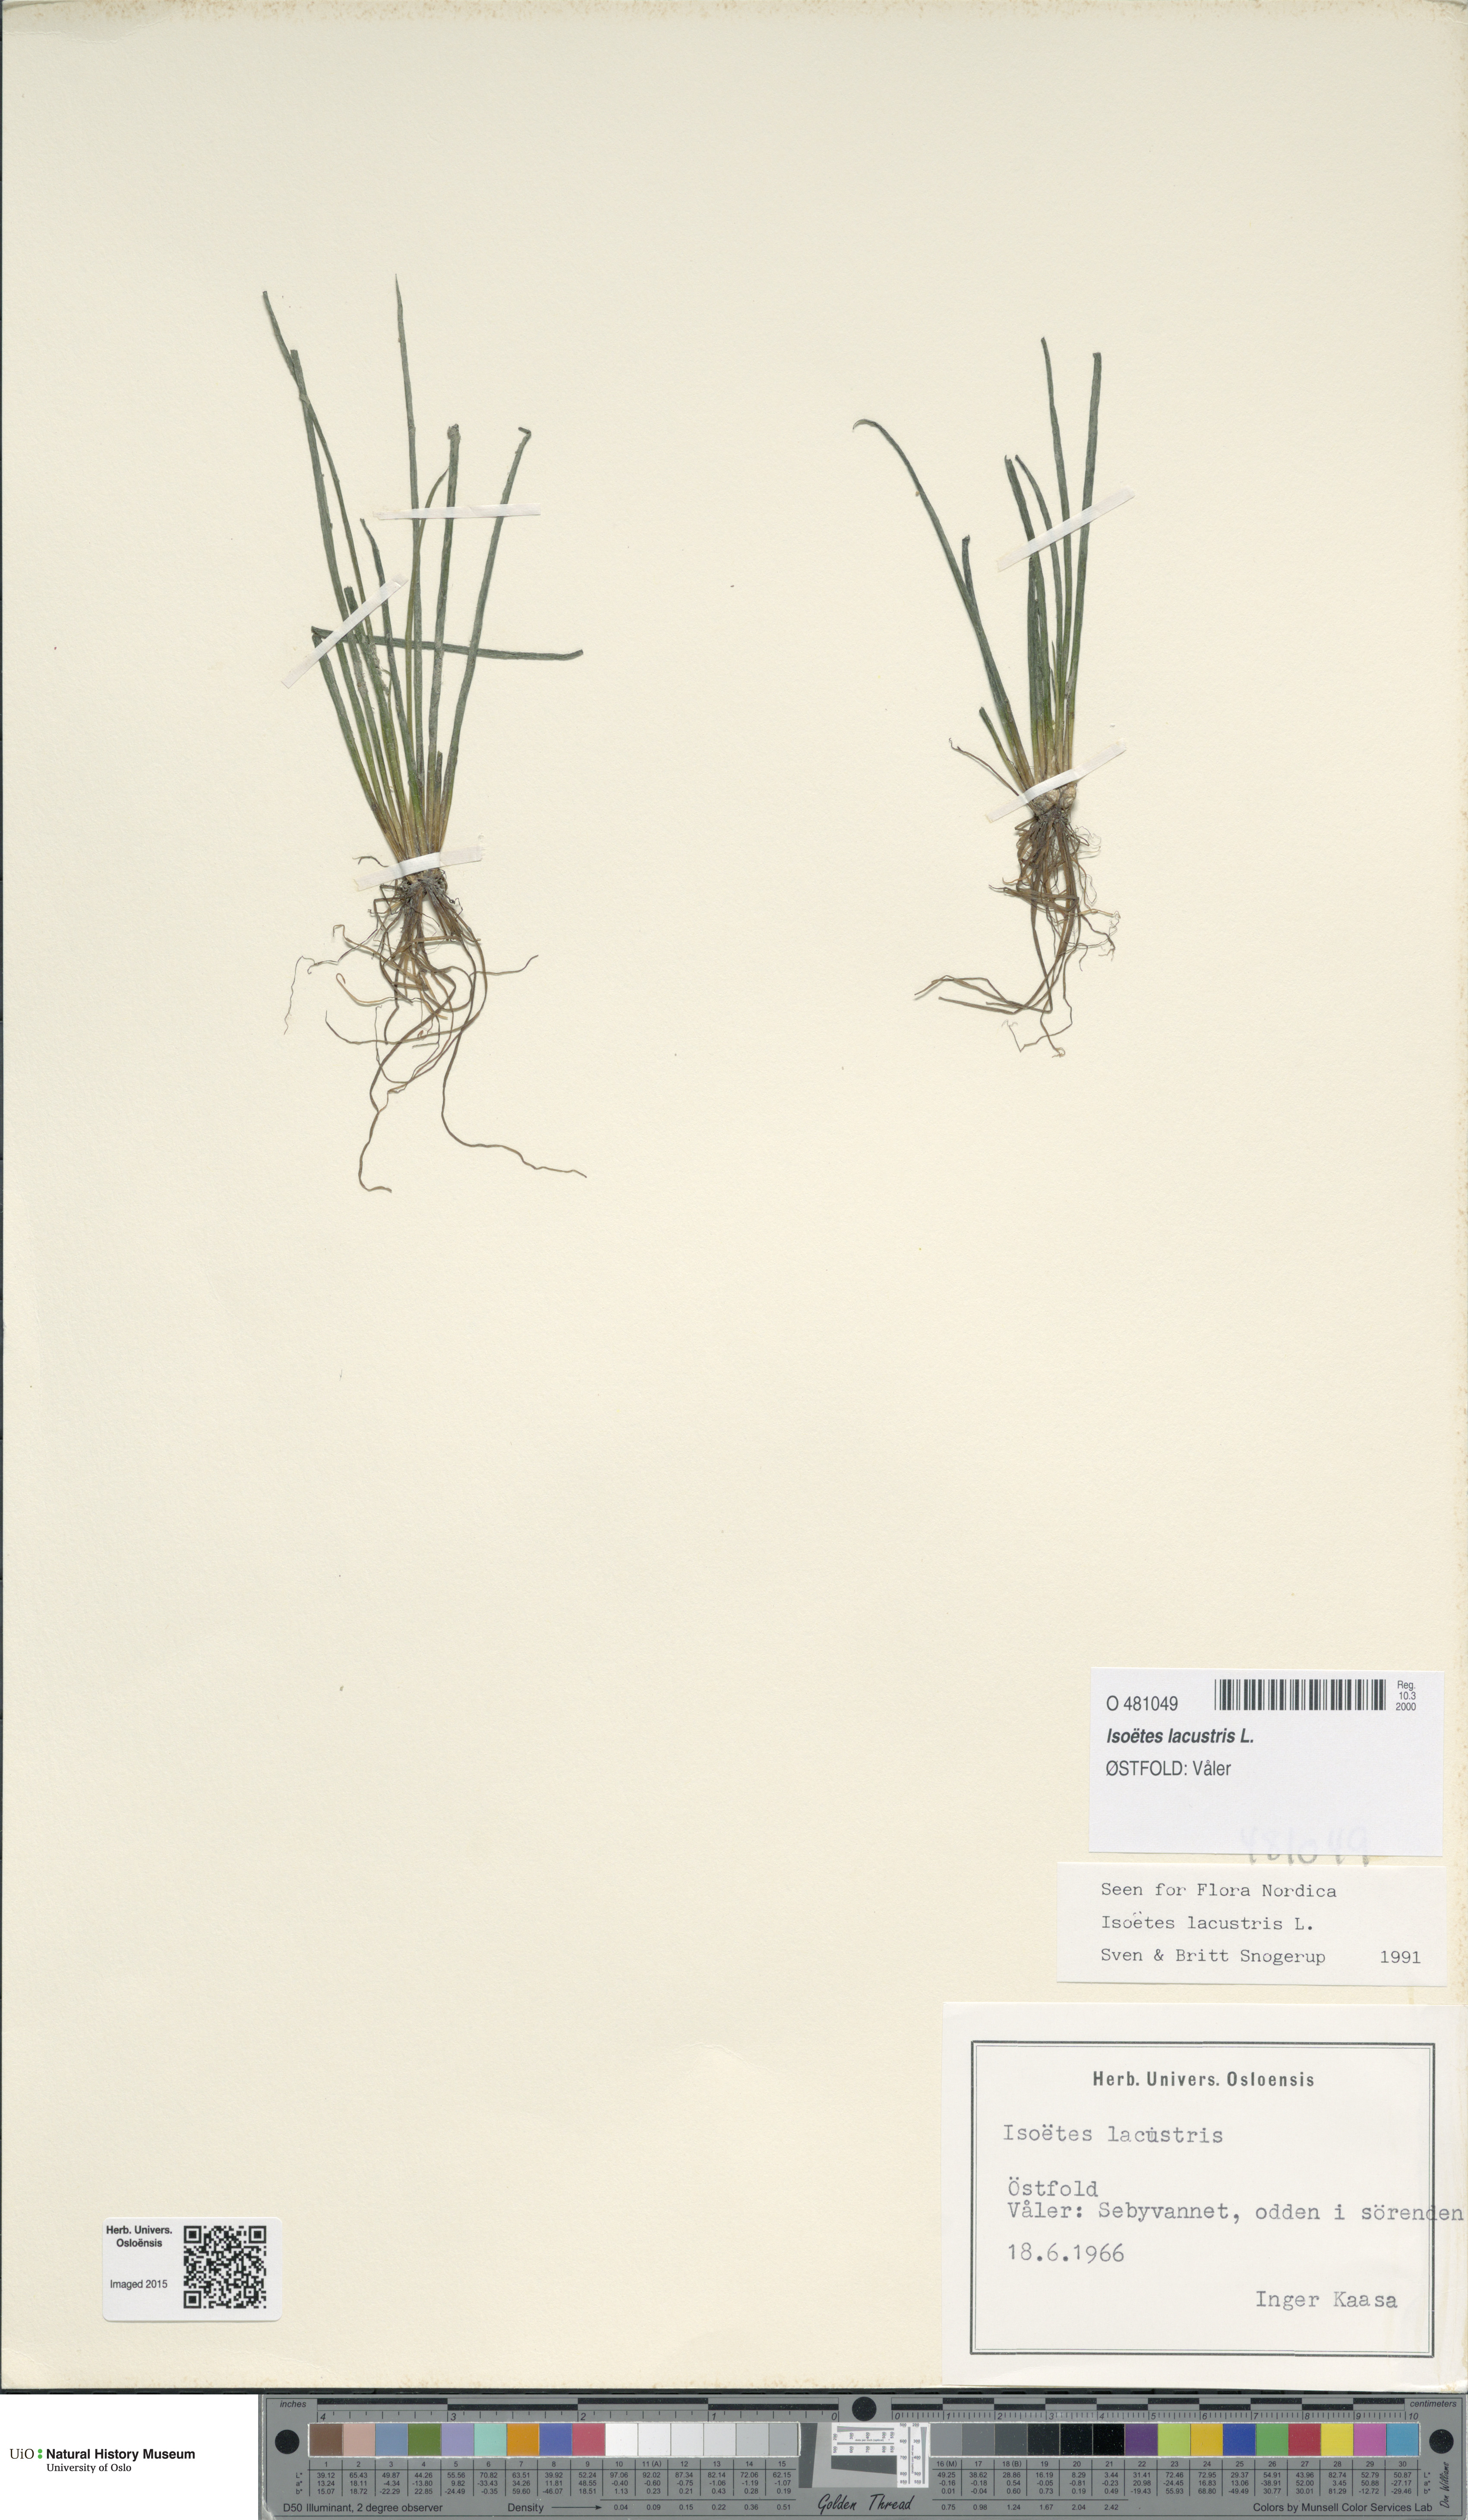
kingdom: Plantae
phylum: Tracheophyta
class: Lycopodiopsida
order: Isoetales
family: Isoetaceae
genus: Isoetes
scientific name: Isoetes lacustris
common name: Common quillwort
